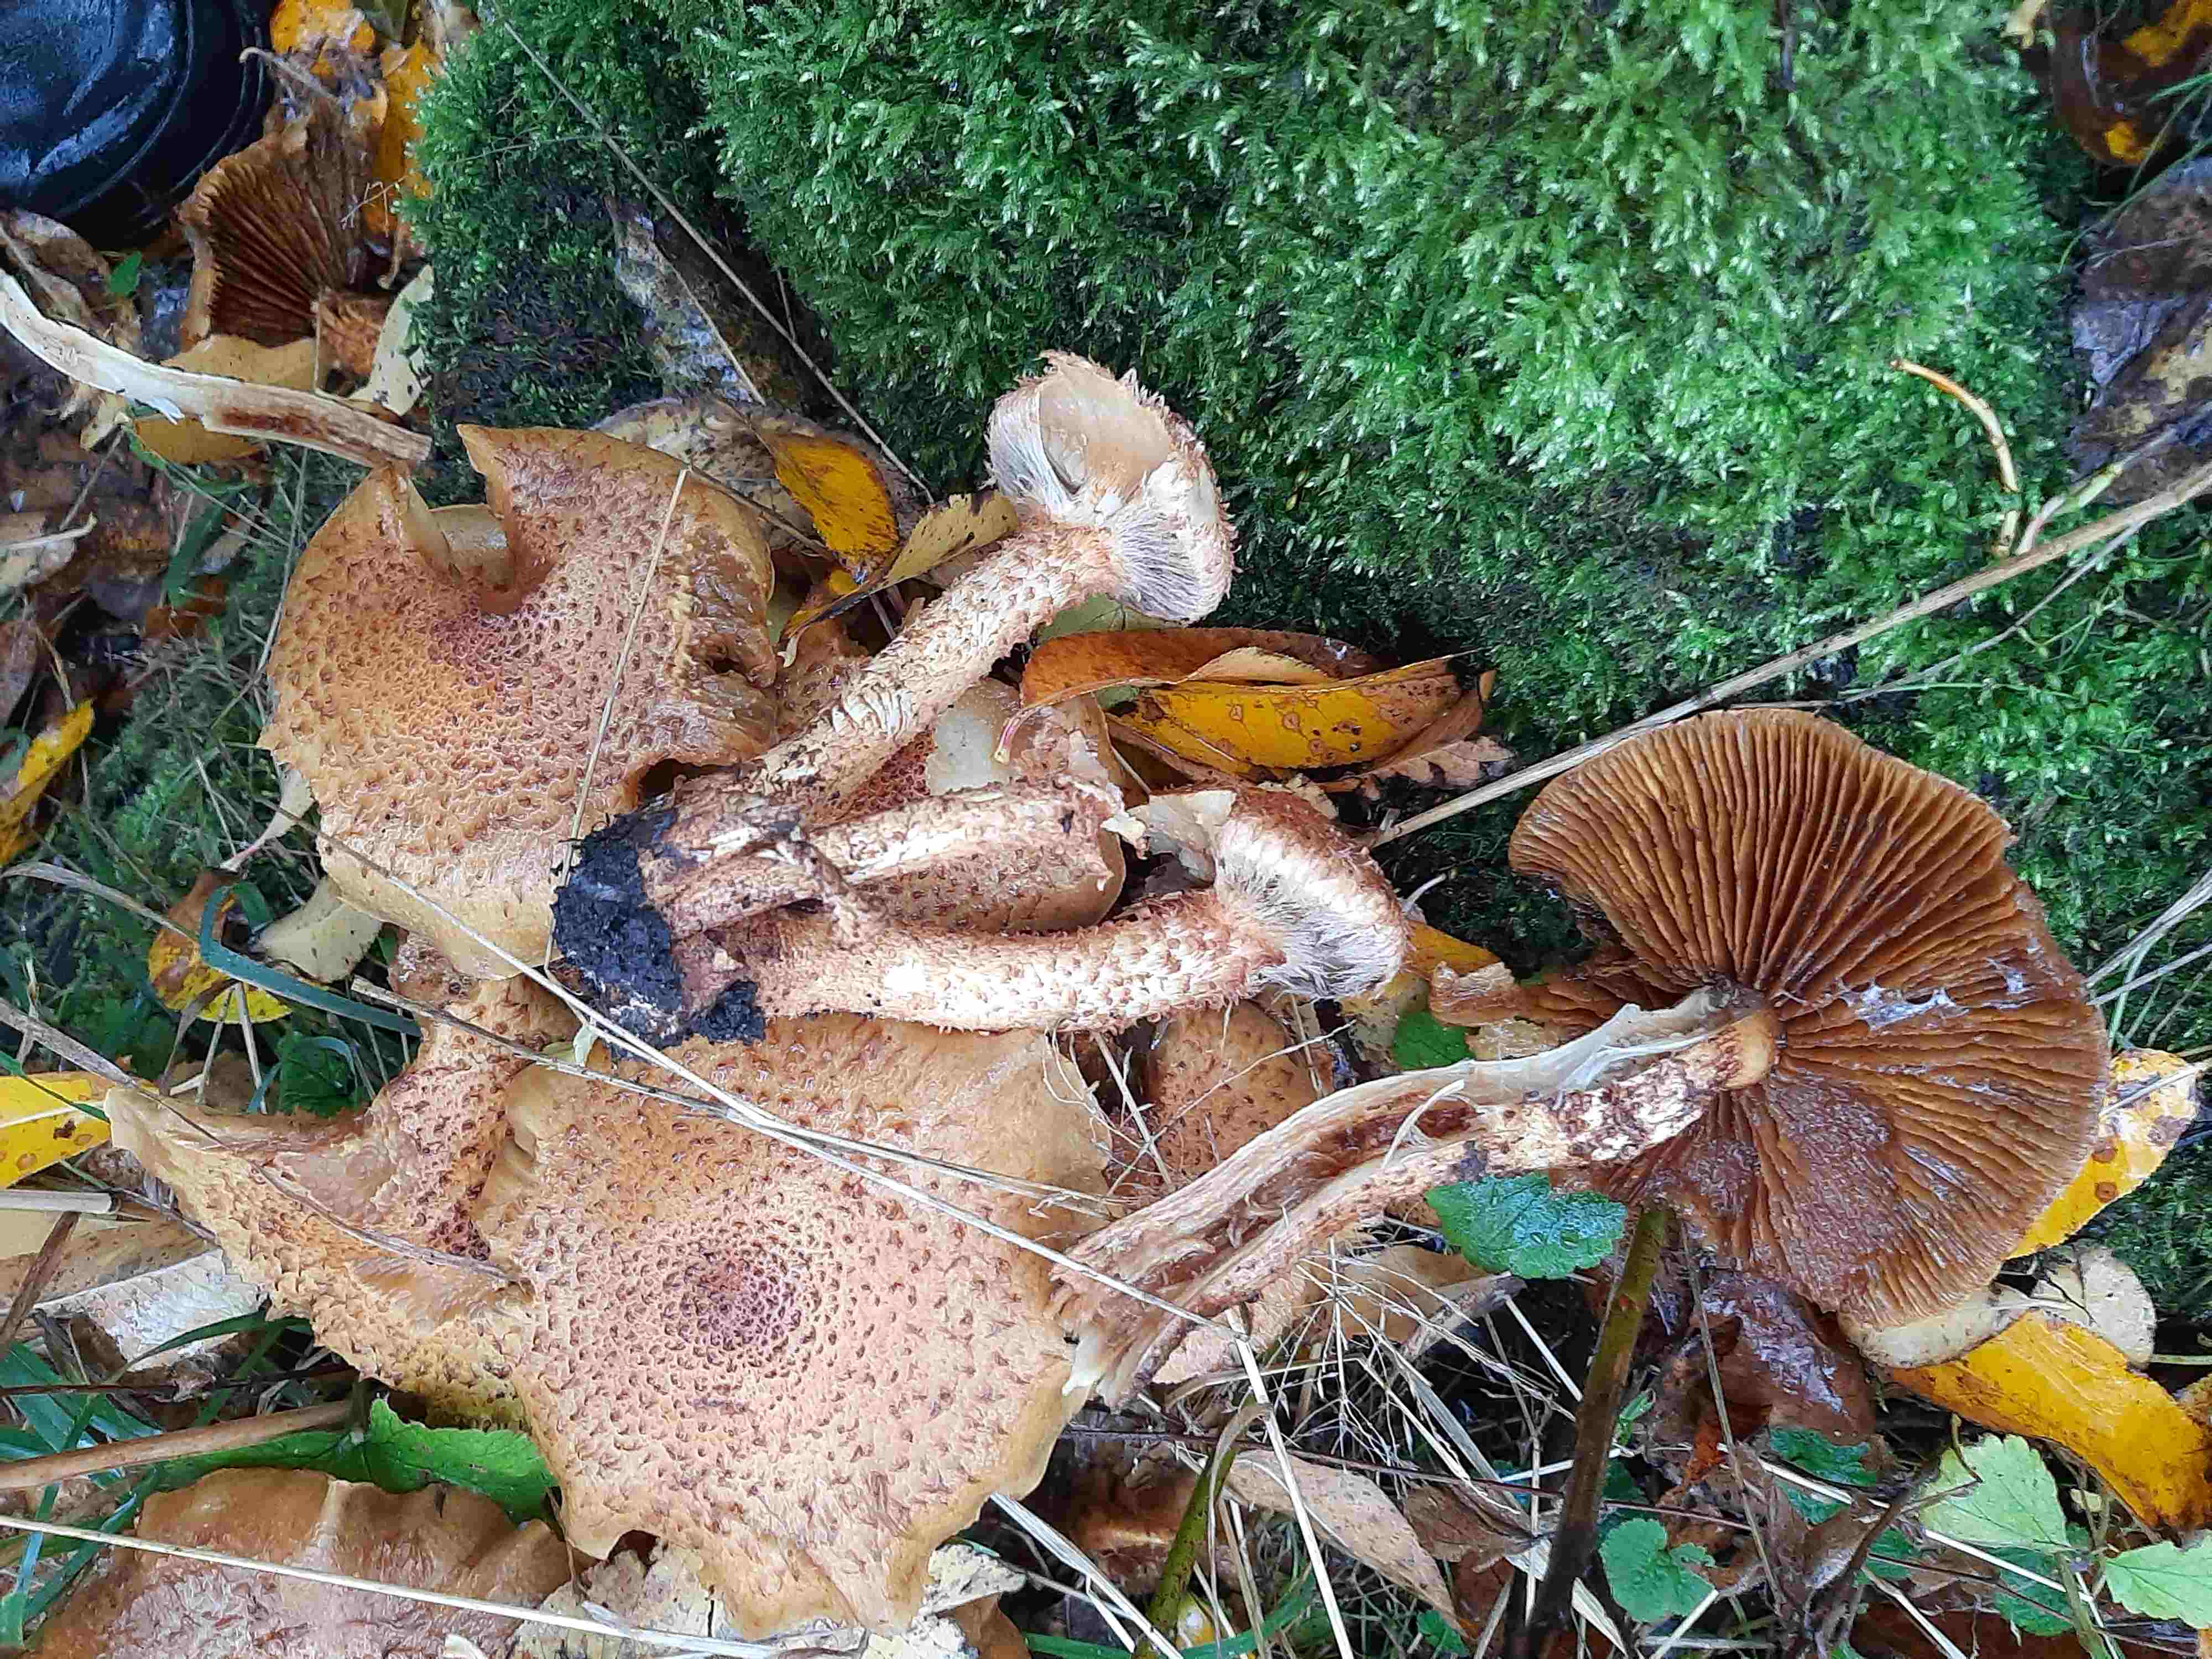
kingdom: Fungi
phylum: Basidiomycota
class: Agaricomycetes
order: Agaricales
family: Strophariaceae
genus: Pholiota
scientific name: Pholiota squarrosa
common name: krumskællet skælhat
